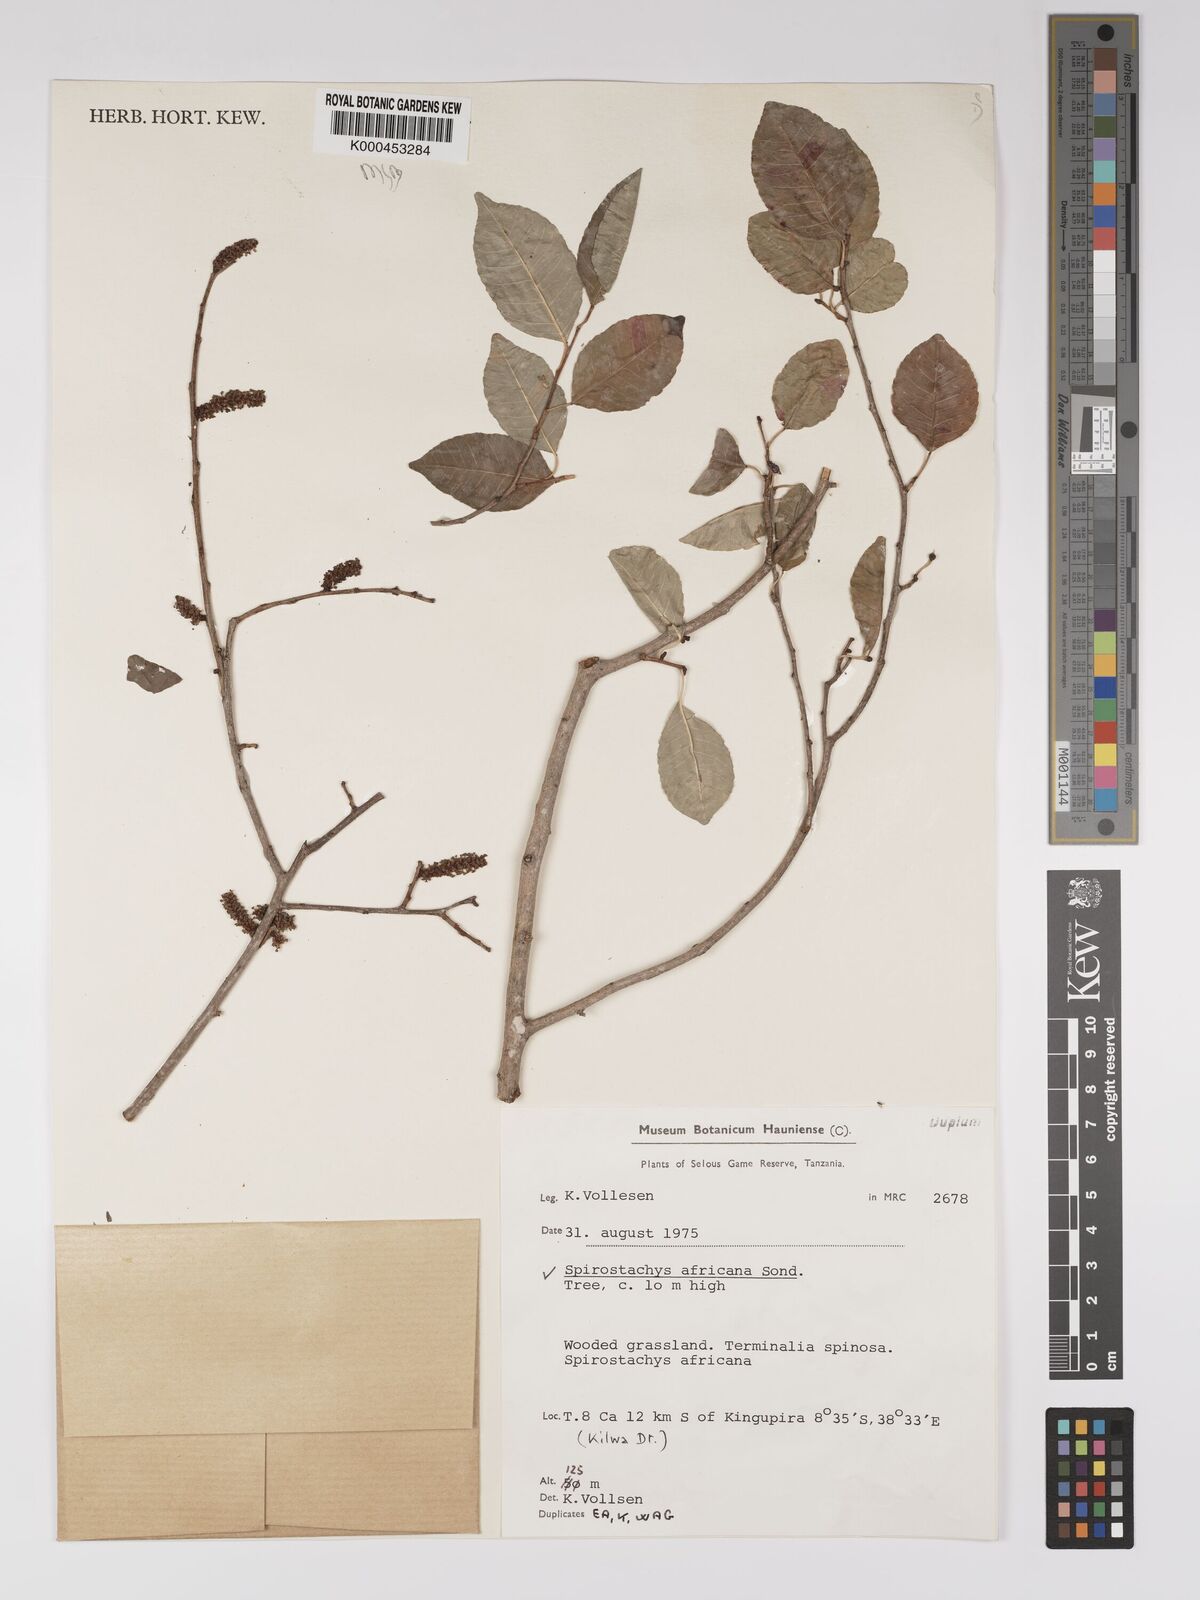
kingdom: Plantae
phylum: Tracheophyta
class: Magnoliopsida
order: Malpighiales
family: Euphorbiaceae
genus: Spirostachys
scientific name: Spirostachys africana
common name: Tamboti
